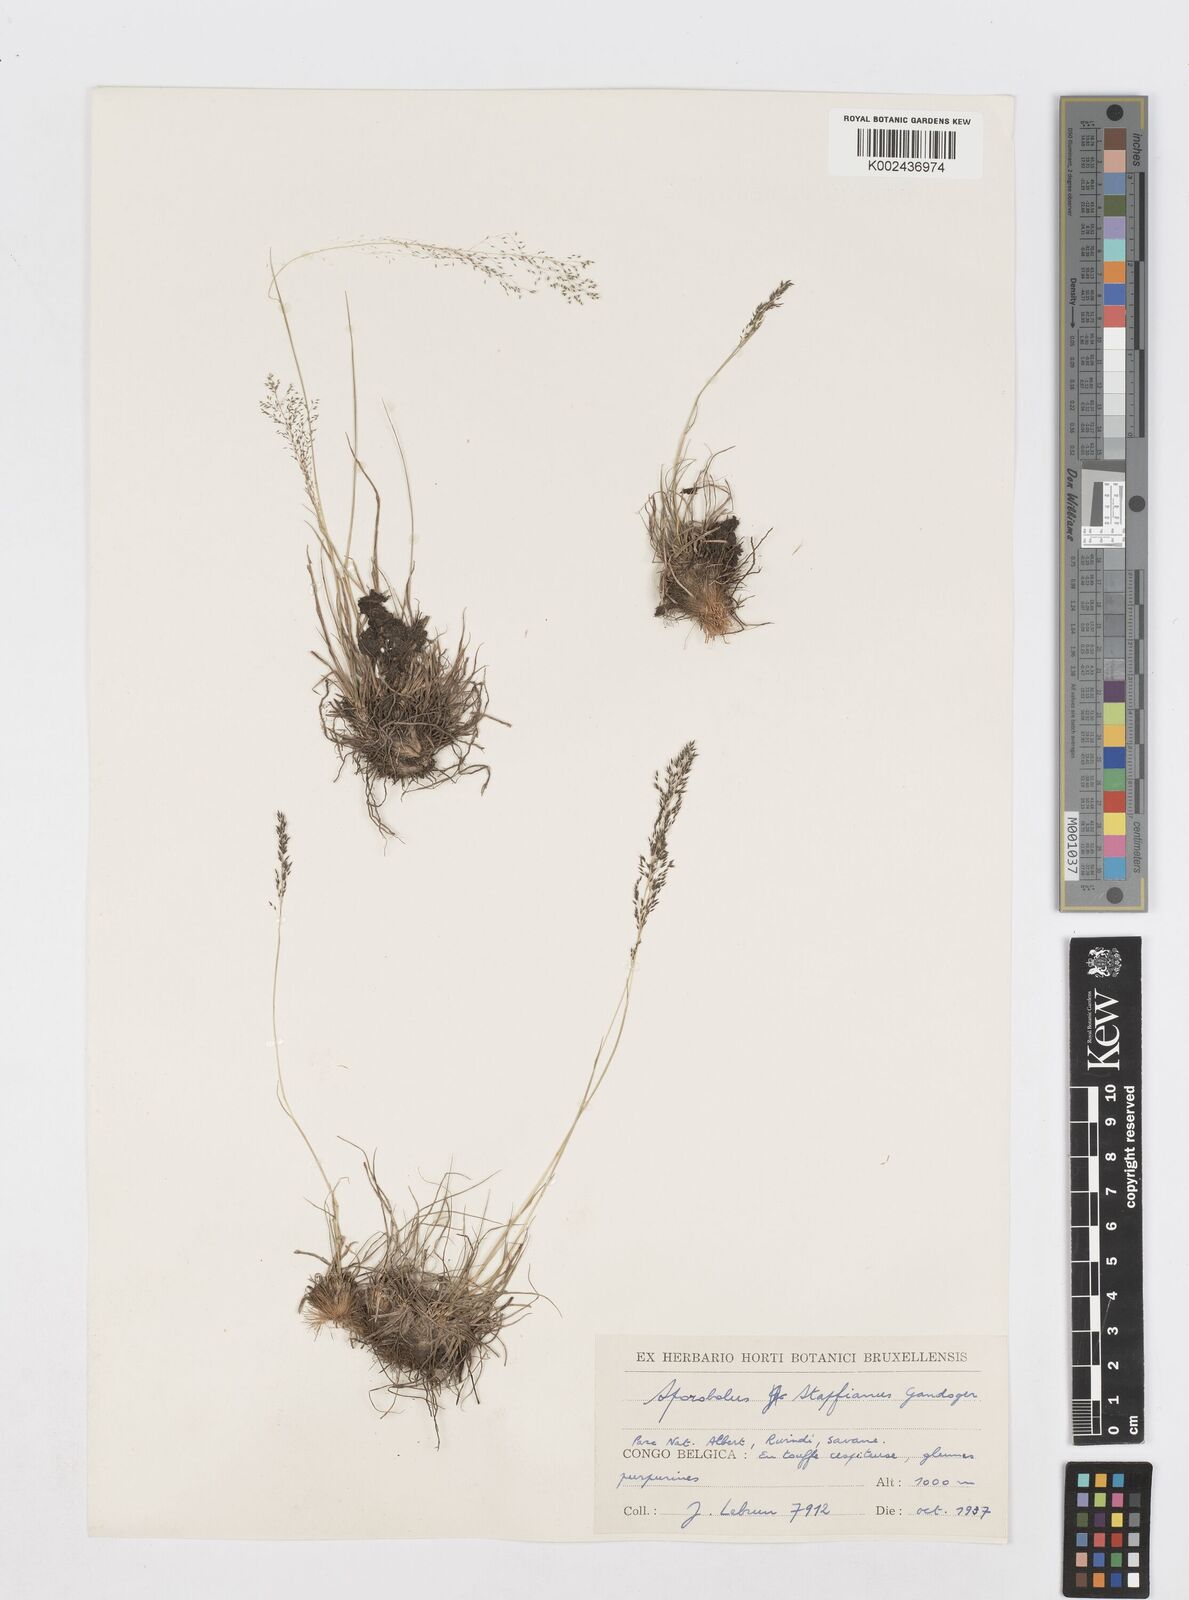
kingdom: Plantae
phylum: Tracheophyta
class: Liliopsida
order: Poales
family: Poaceae
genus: Sporobolus
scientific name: Sporobolus stapfianus
